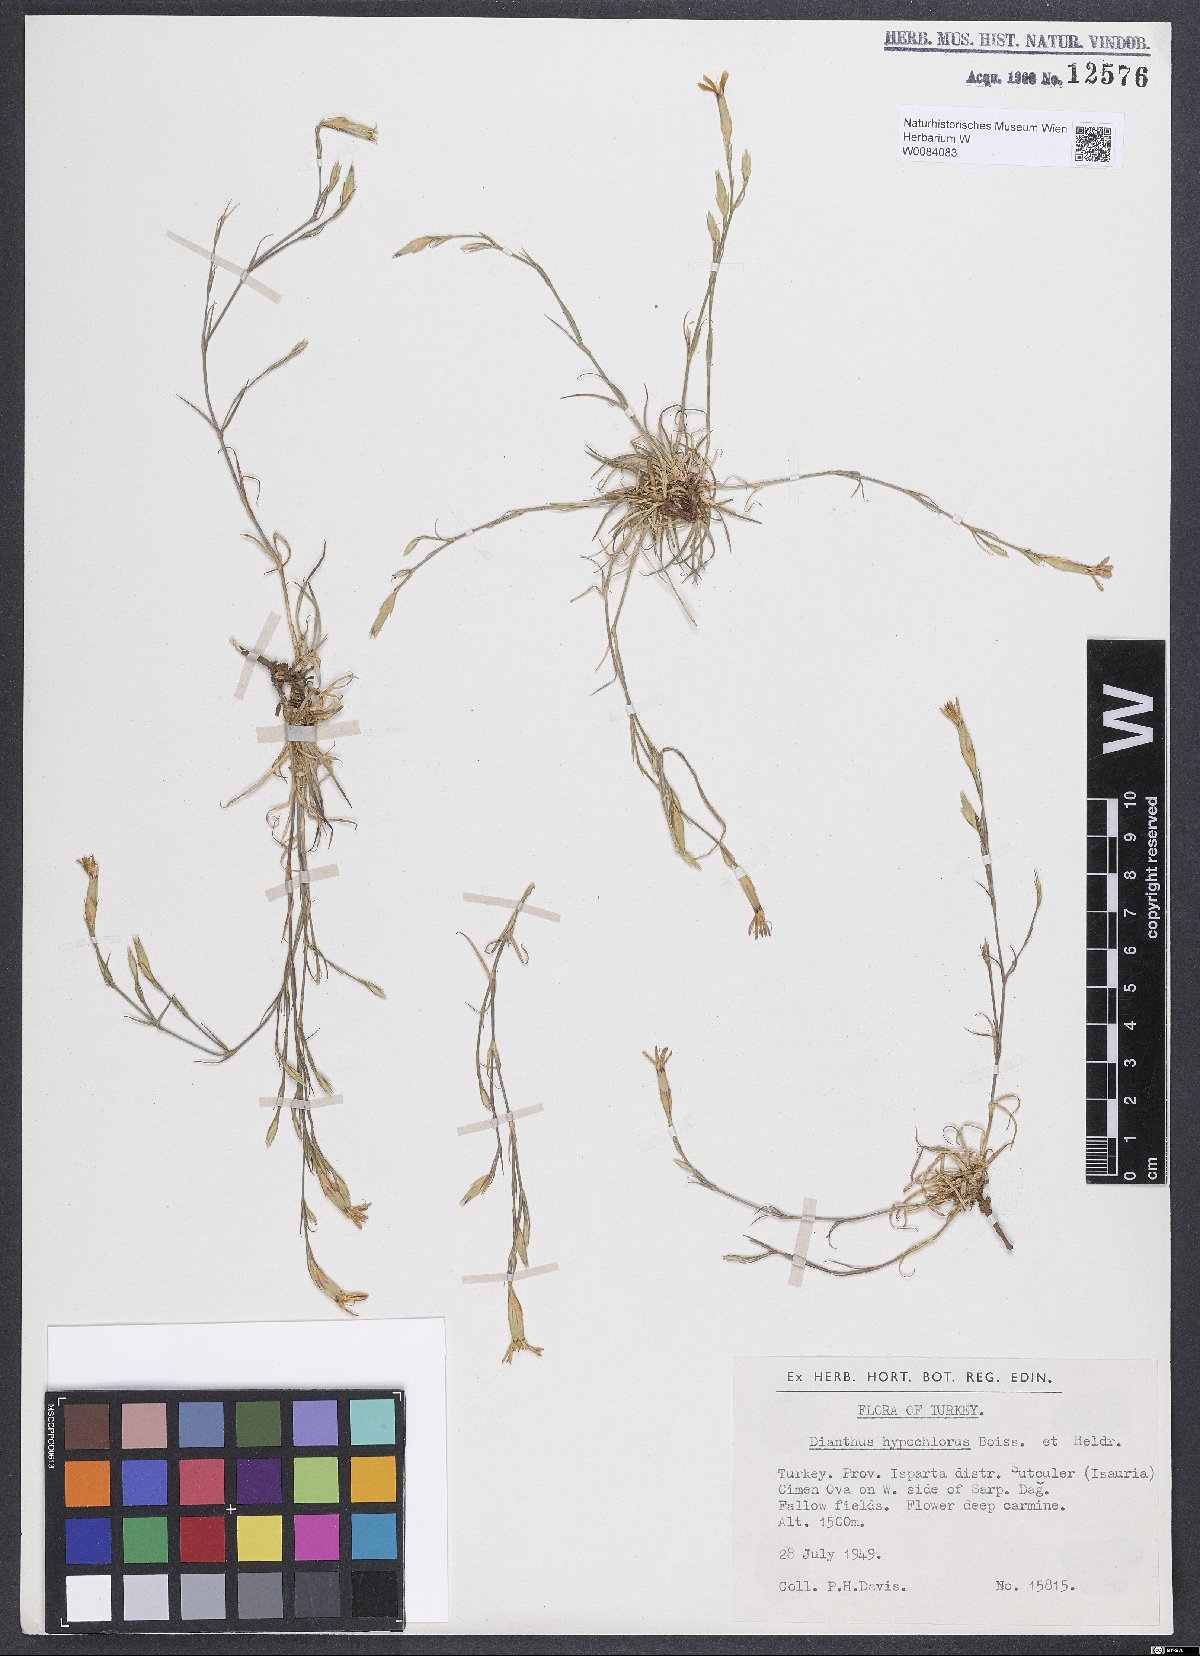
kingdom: Plantae
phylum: Tracheophyta
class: Magnoliopsida
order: Caryophyllales
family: Caryophyllaceae
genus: Dianthus
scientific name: Dianthus zonatus
